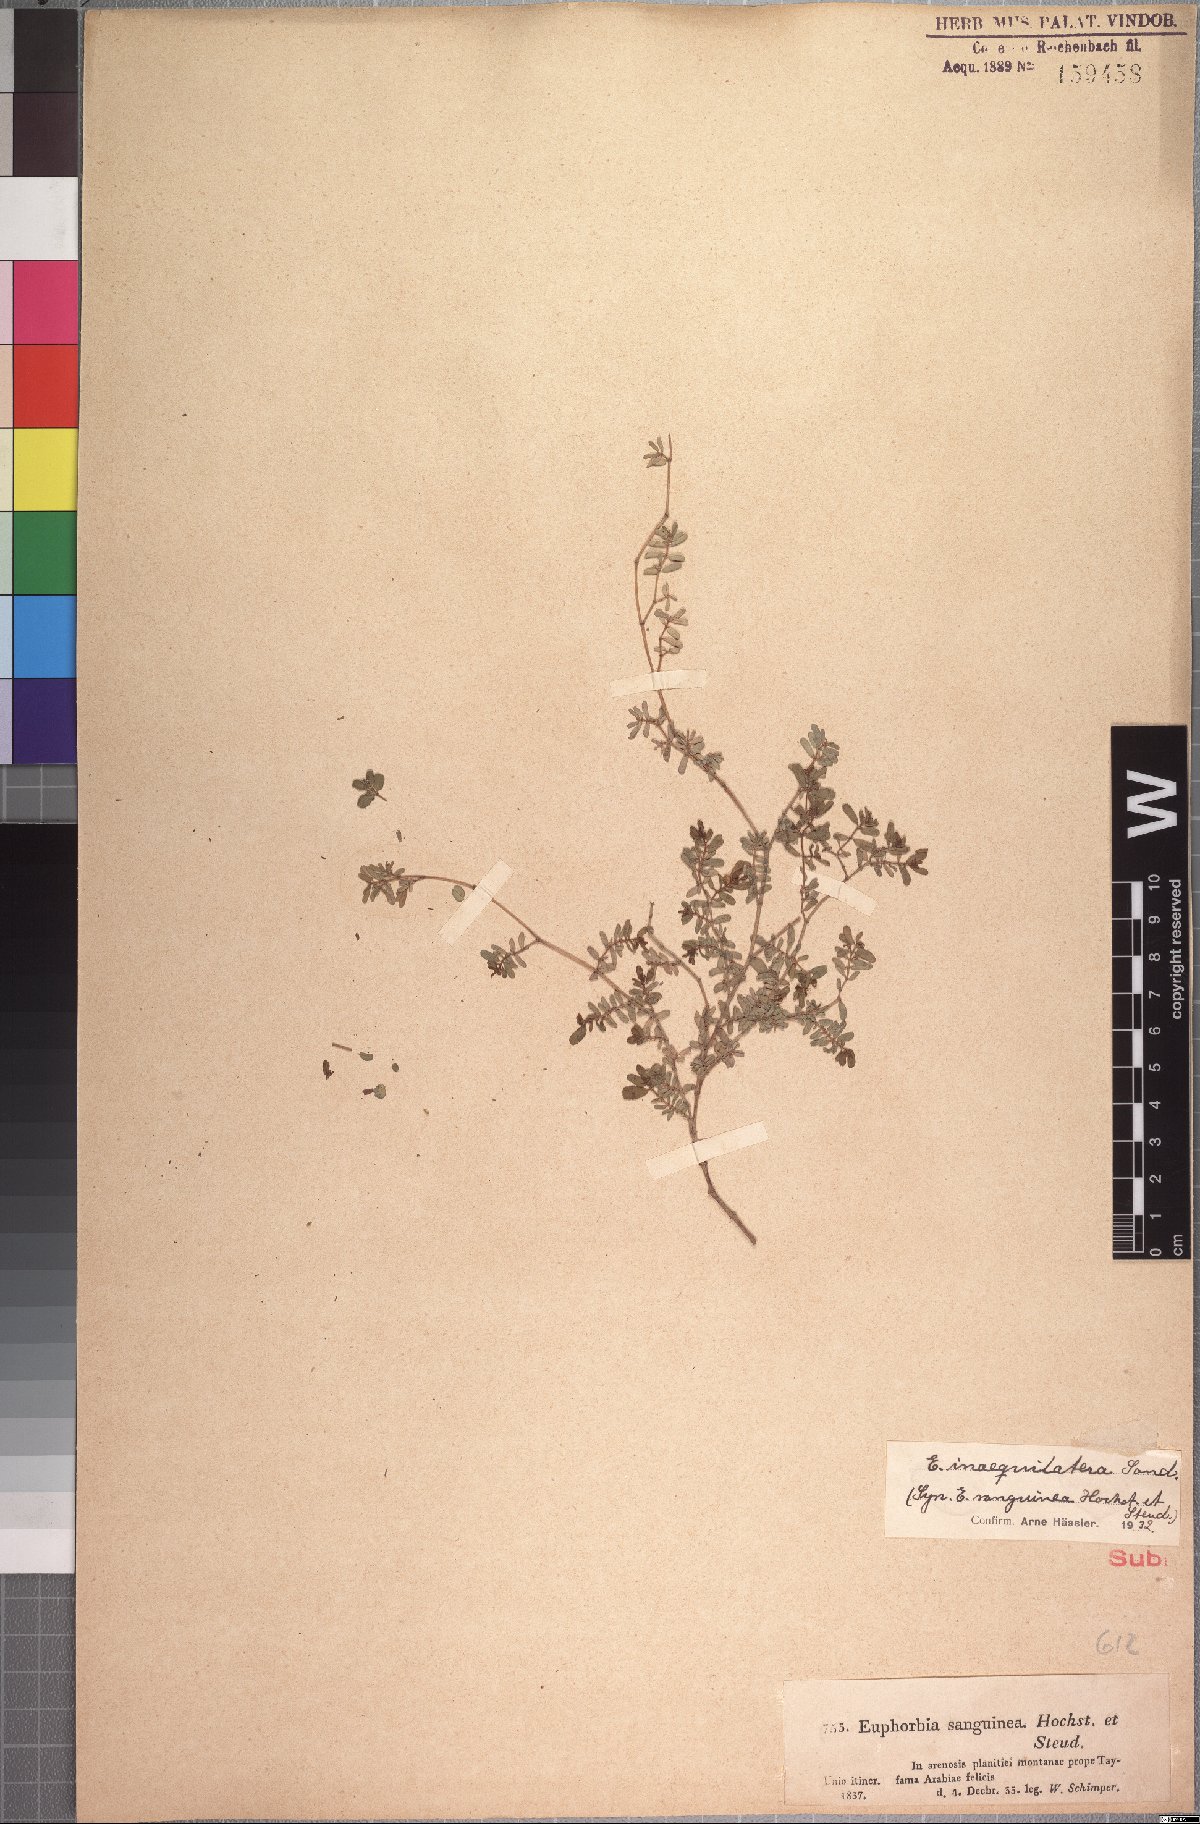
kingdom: Plantae
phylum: Tracheophyta
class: Magnoliopsida
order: Malpighiales
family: Euphorbiaceae
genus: Euphorbia
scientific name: Euphorbia inaequilatera
